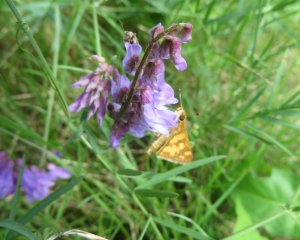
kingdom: Animalia
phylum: Arthropoda
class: Insecta
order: Lepidoptera
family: Hesperiidae
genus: Polites
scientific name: Polites coras
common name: Peck's Skipper
